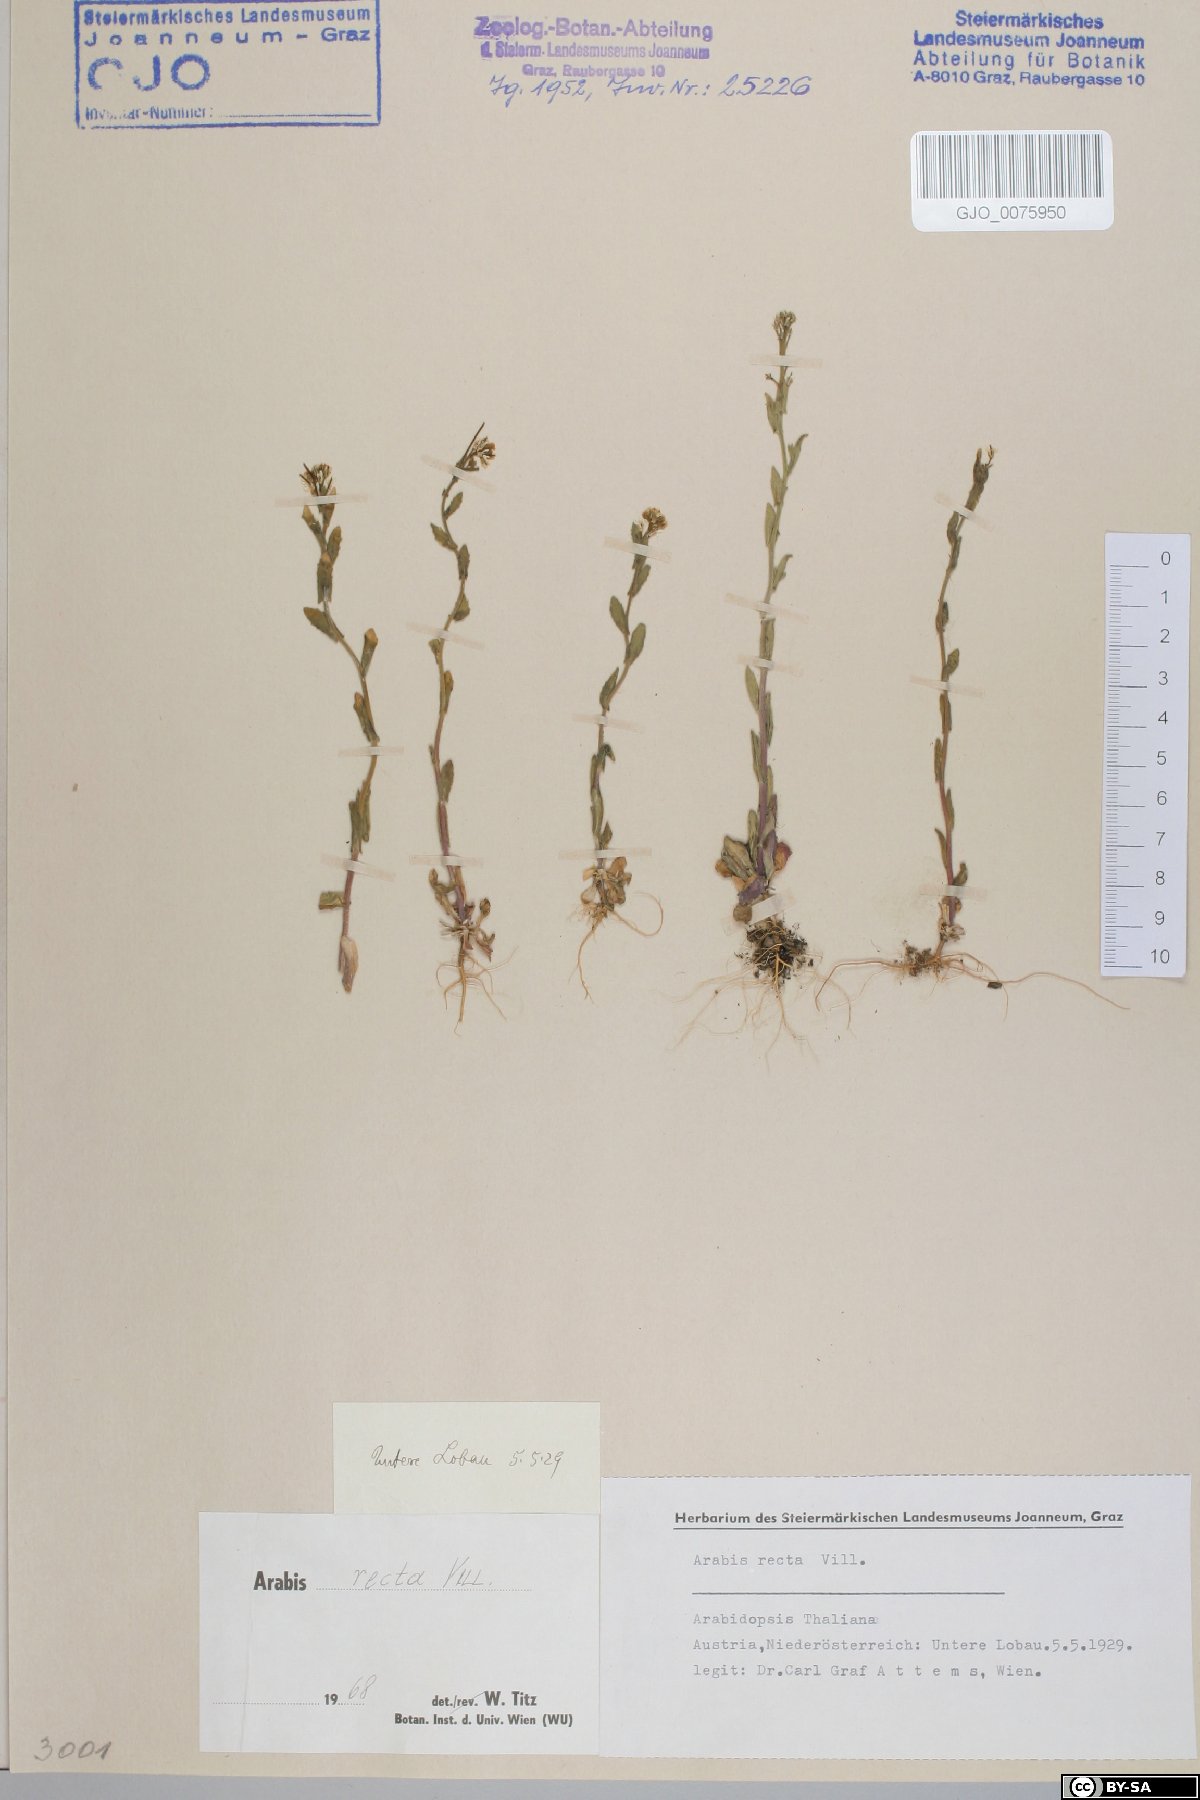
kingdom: Plantae
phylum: Tracheophyta
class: Magnoliopsida
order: Brassicales
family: Brassicaceae
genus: Arabis
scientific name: Arabis auriculata
